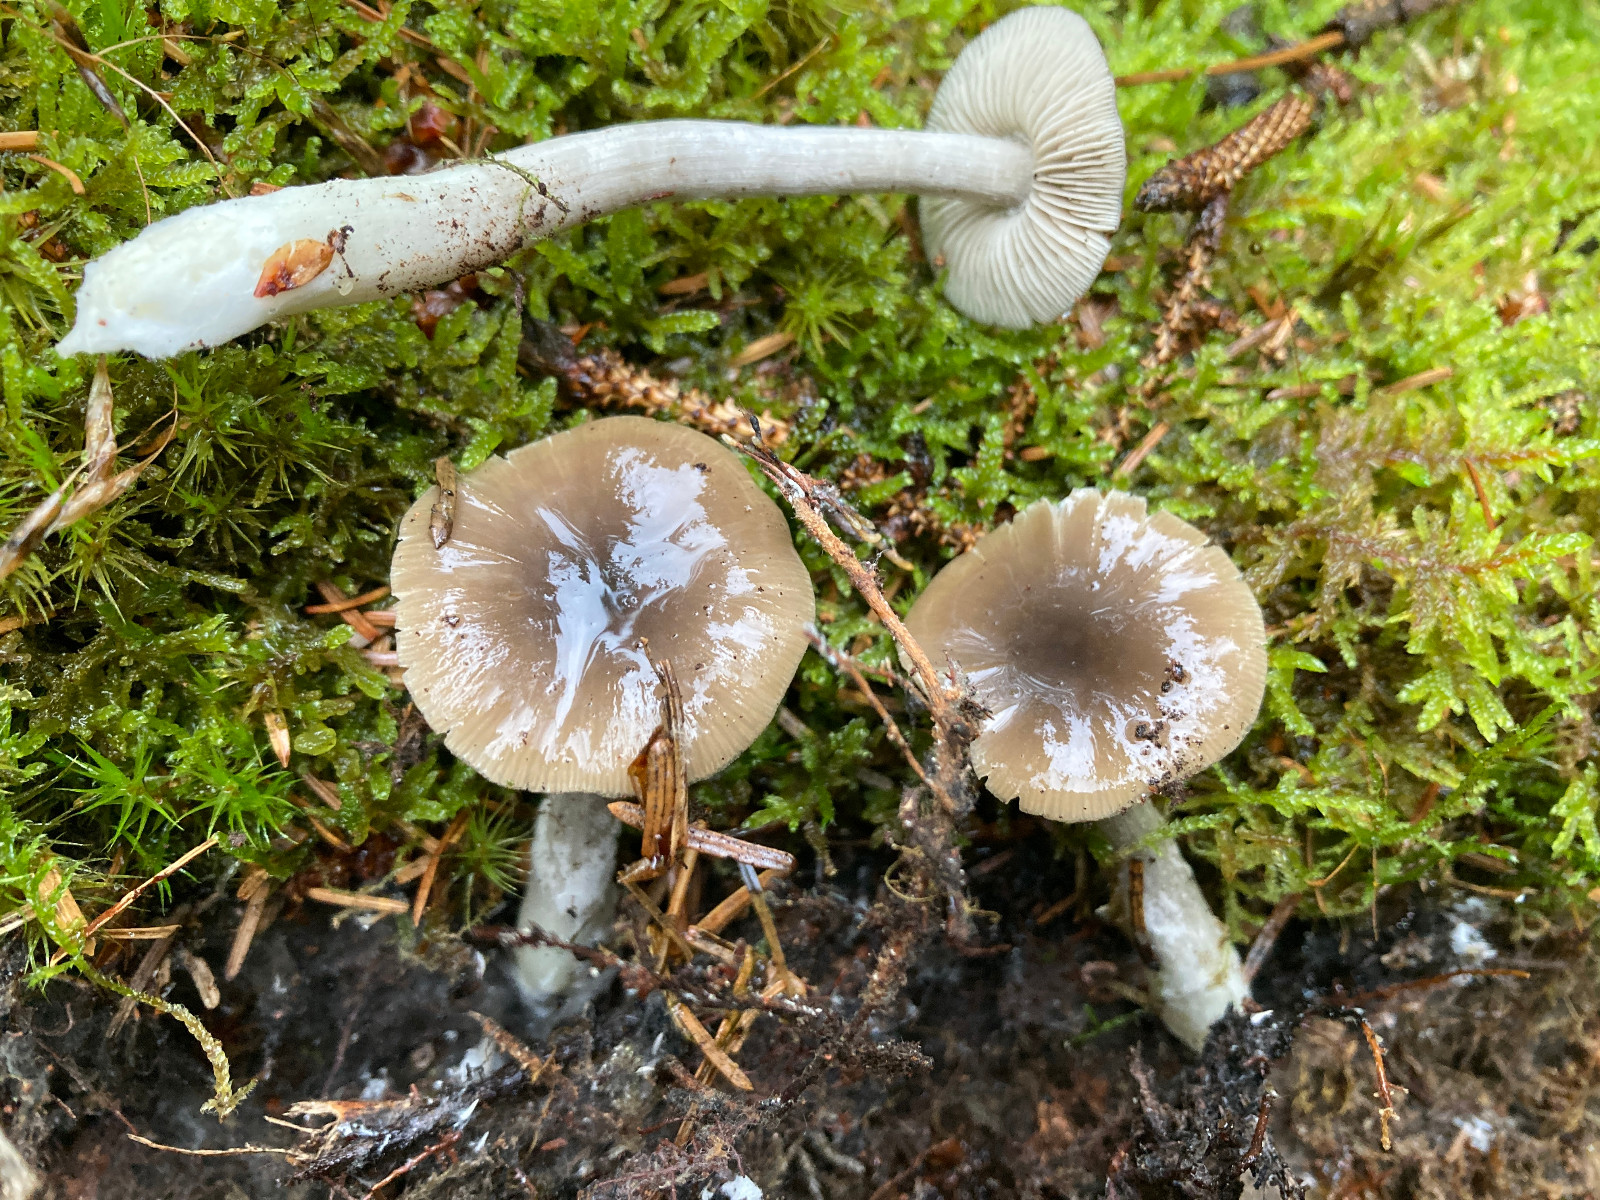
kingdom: Fungi
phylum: Basidiomycota
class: Agaricomycetes
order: Agaricales
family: Entolomataceae
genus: Entocybe
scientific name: Entocybe turbida
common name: plantage-rødblad
